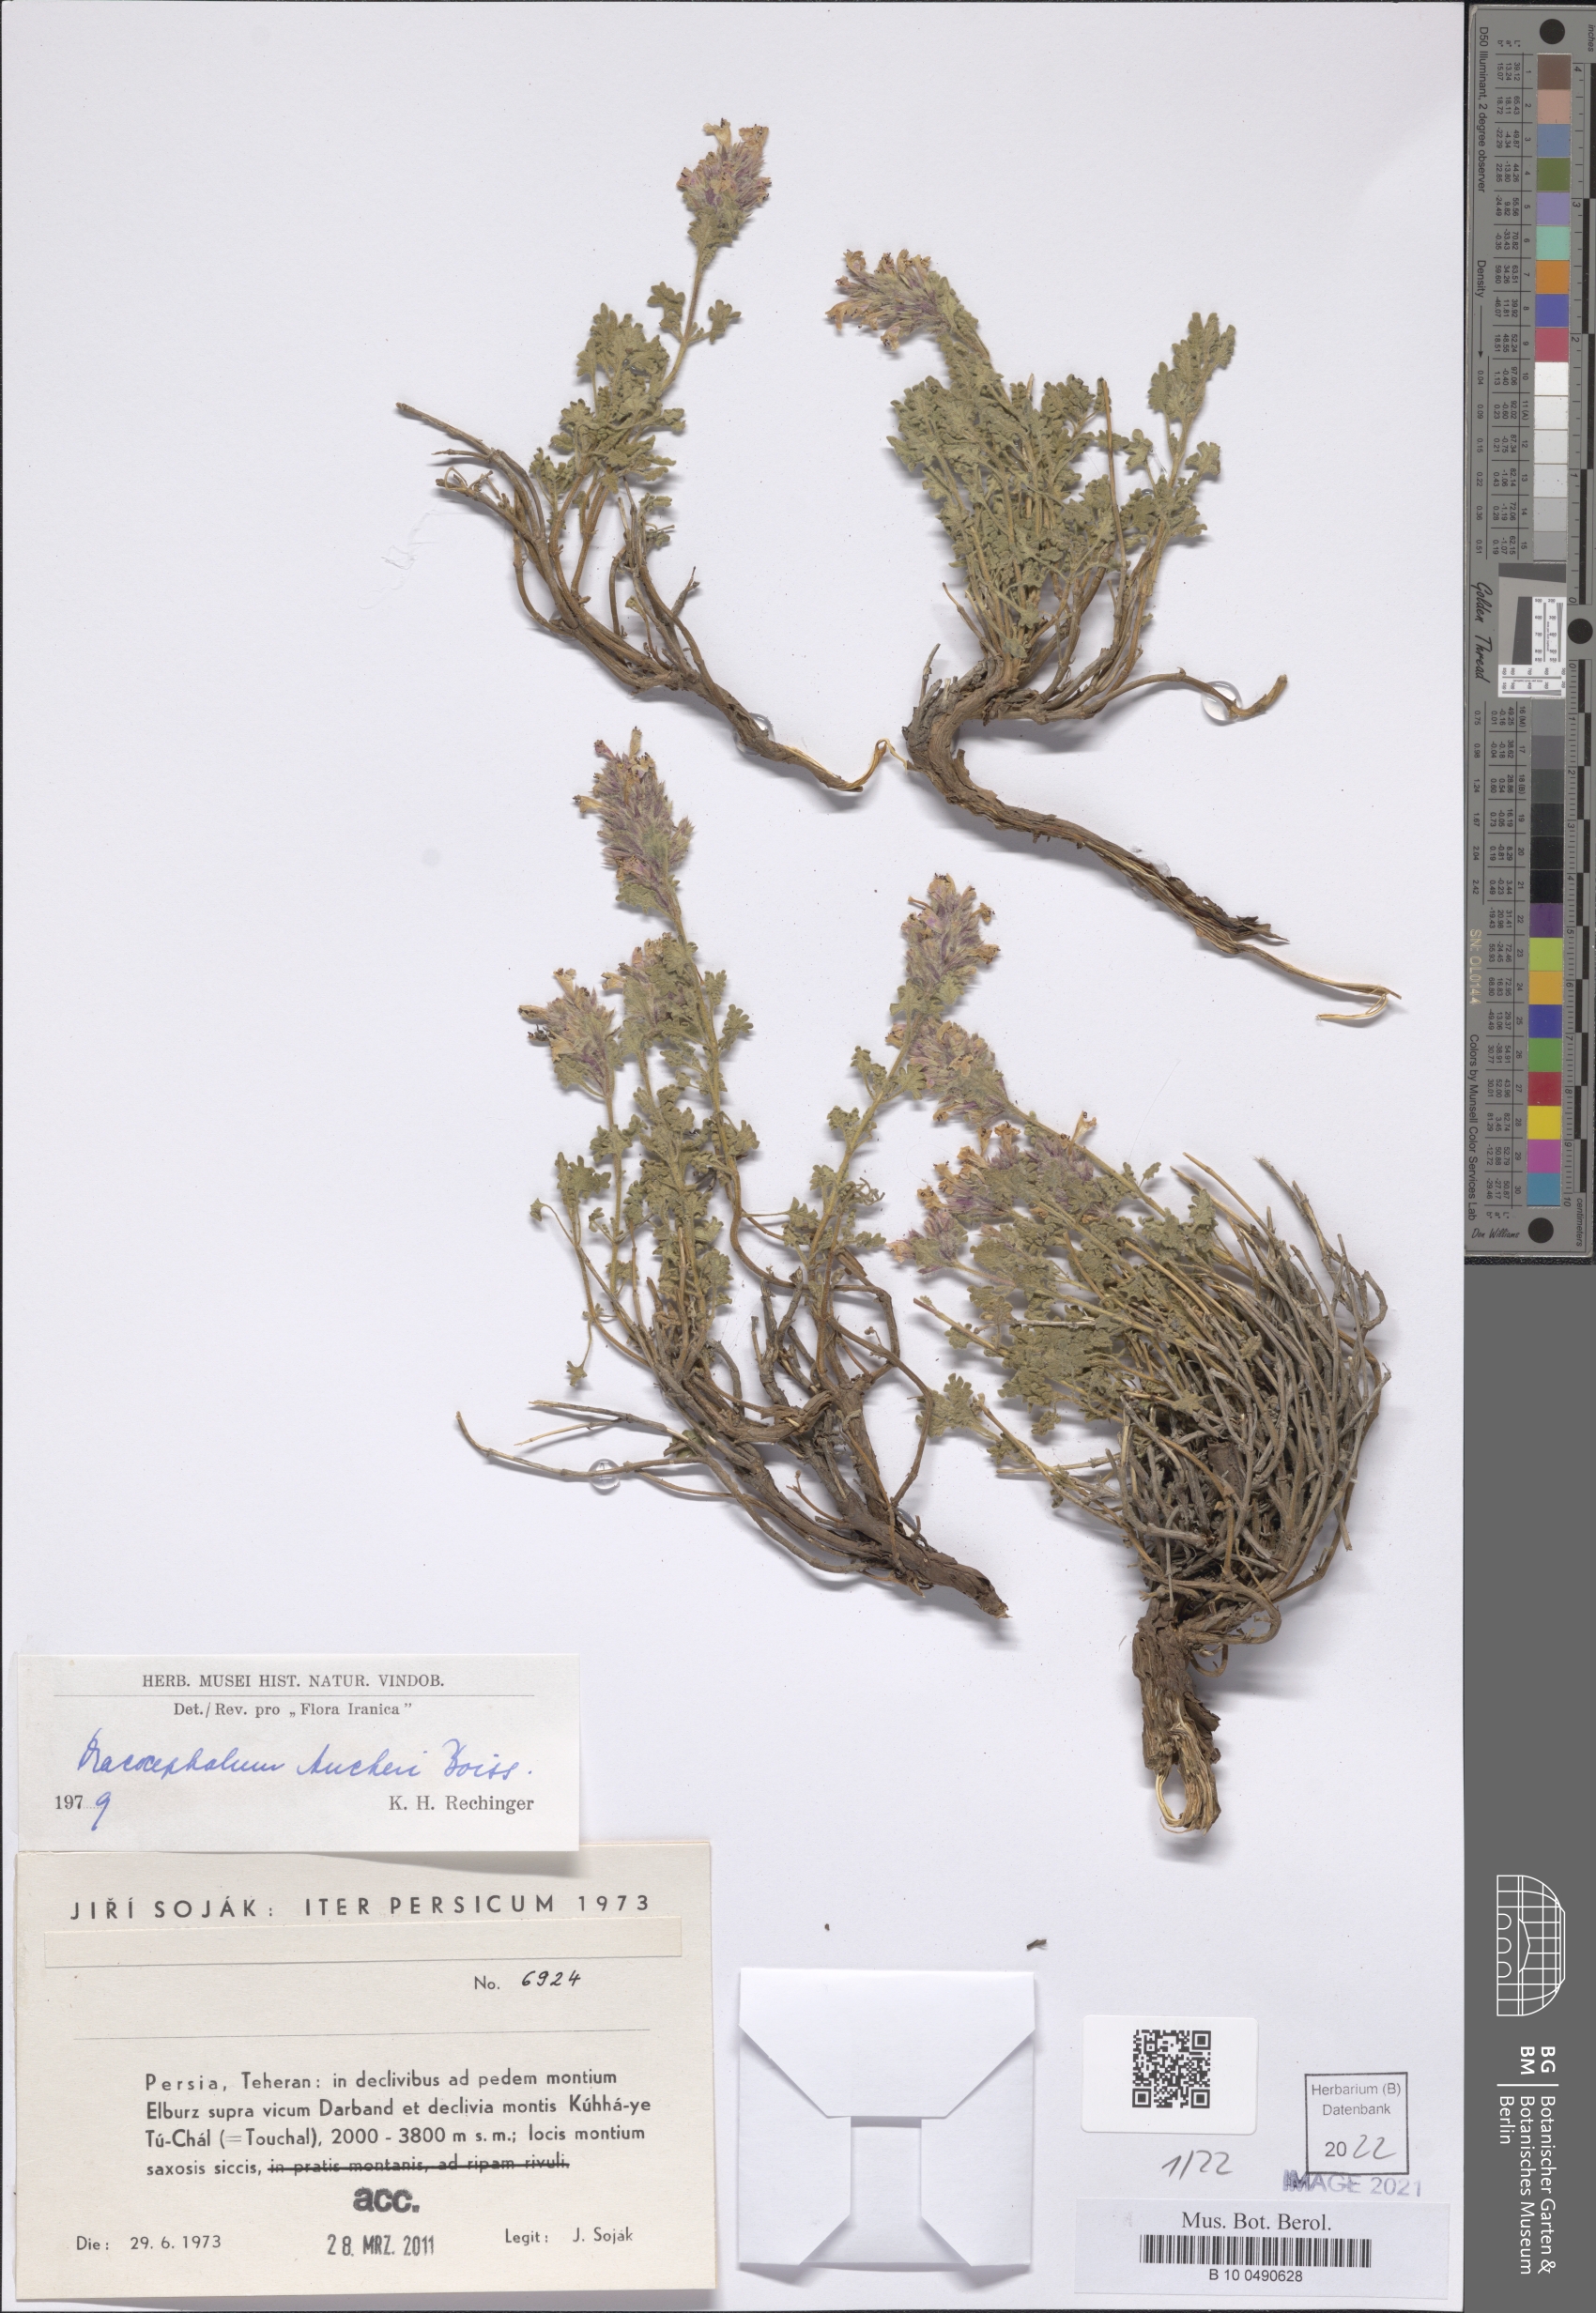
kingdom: Plantae
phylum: Tracheophyta
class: Magnoliopsida
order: Lamiales
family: Lamiaceae
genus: Dracocephalum
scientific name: Dracocephalum aucheri
